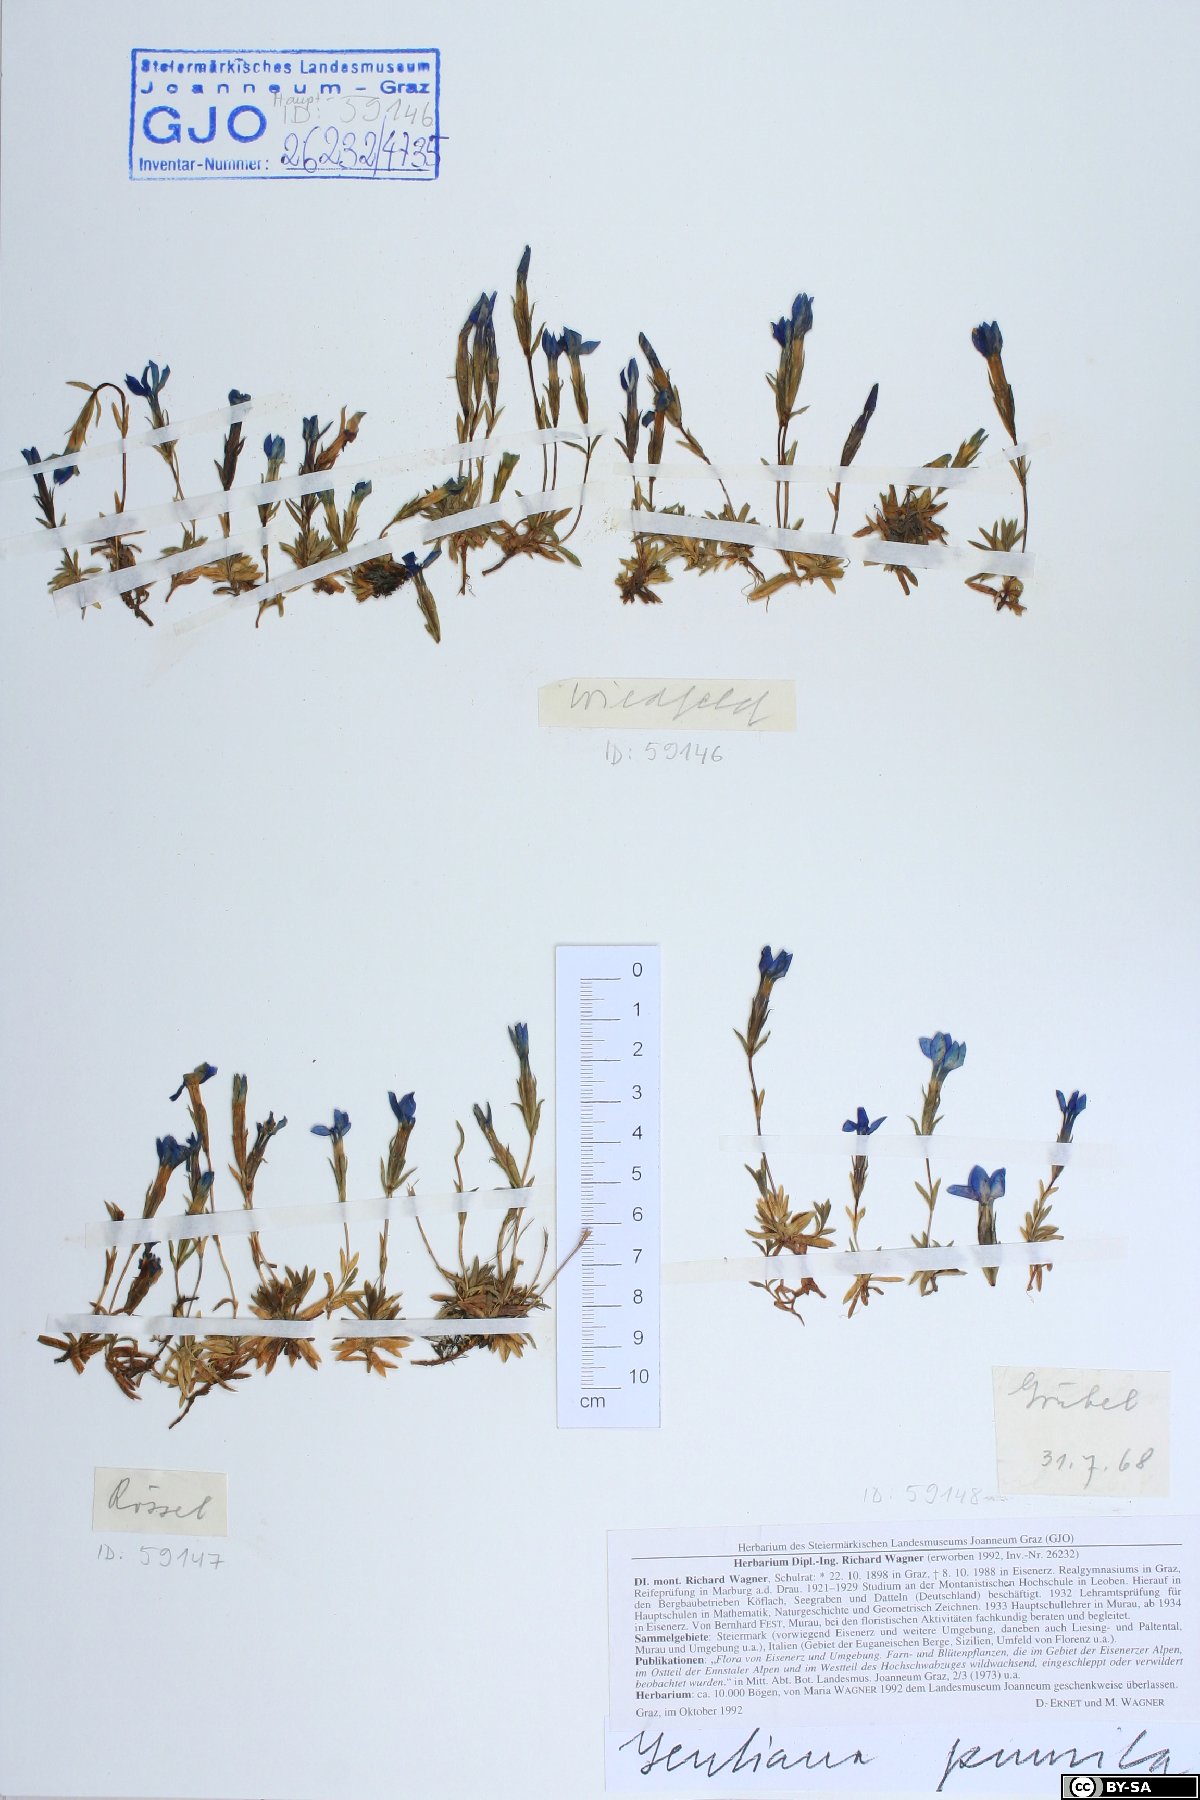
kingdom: Plantae
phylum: Tracheophyta
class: Magnoliopsida
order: Gentianales
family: Gentianaceae
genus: Gentiana
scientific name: Gentiana pumila
